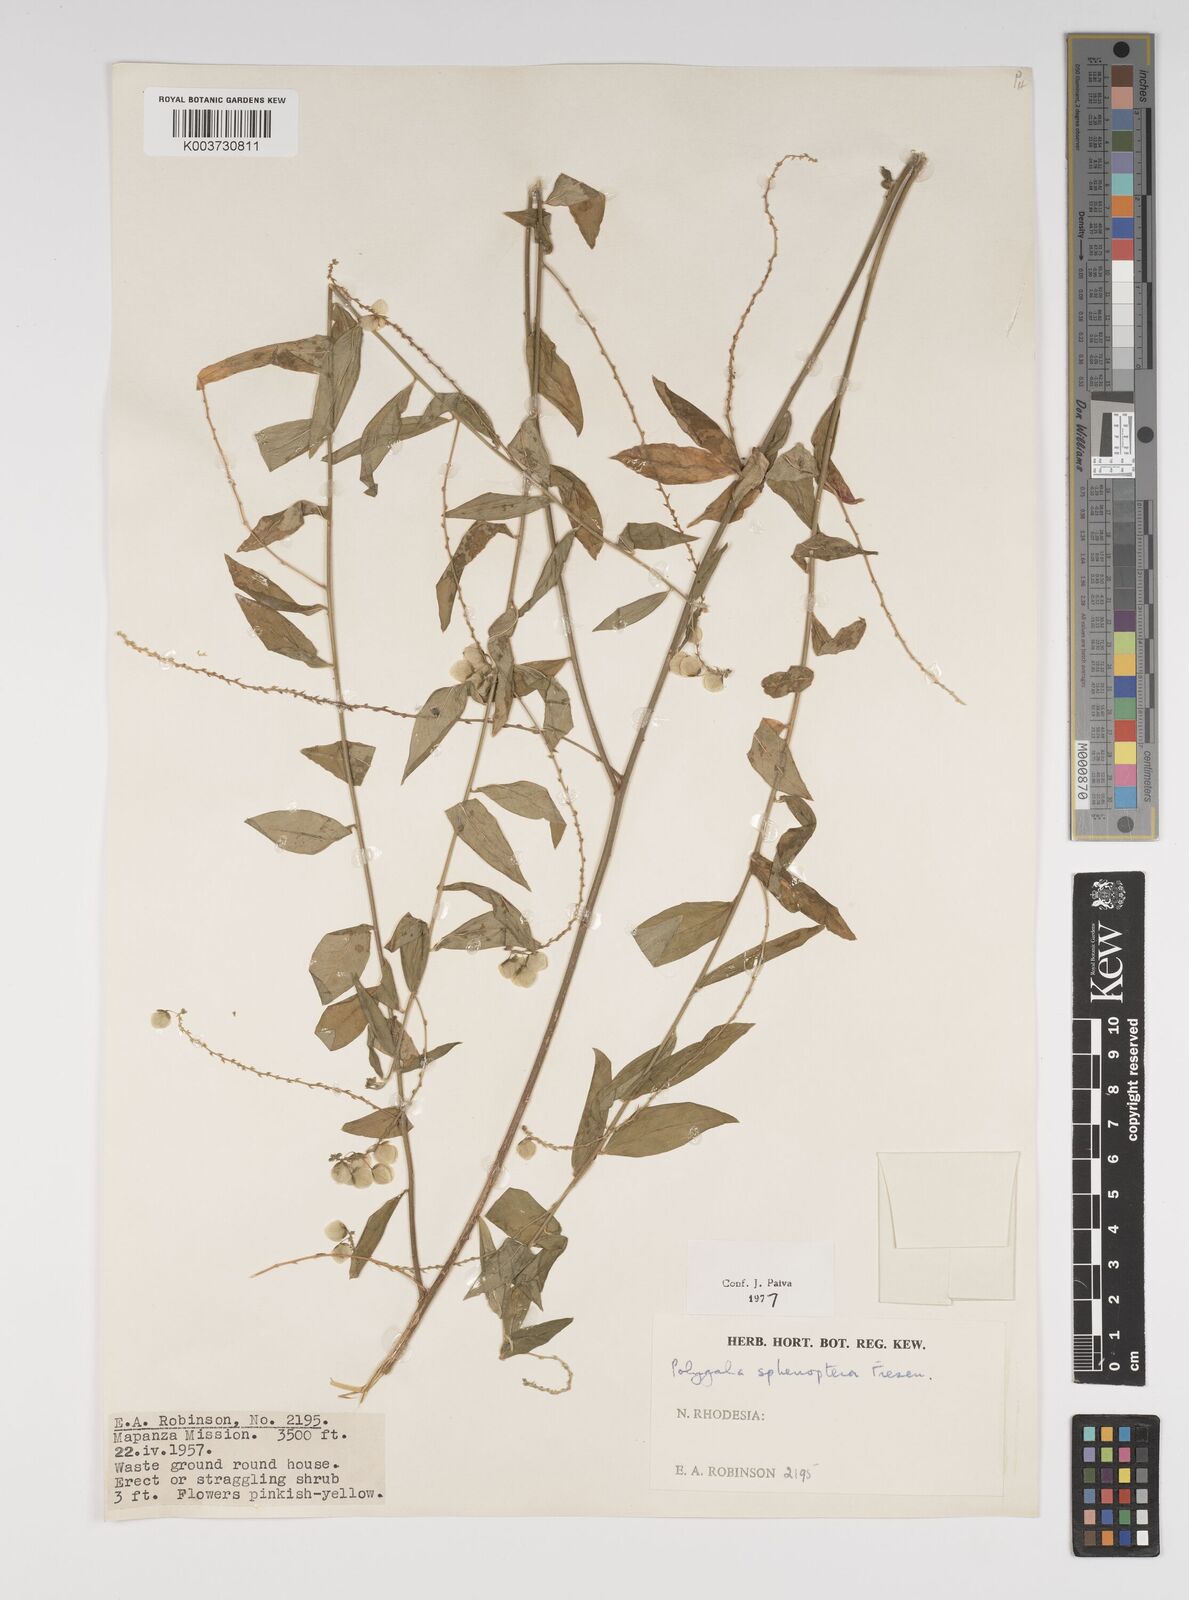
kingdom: Plantae
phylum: Tracheophyta
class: Magnoliopsida
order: Fabales
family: Polygalaceae
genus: Polygala
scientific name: Polygala sphenoptera
